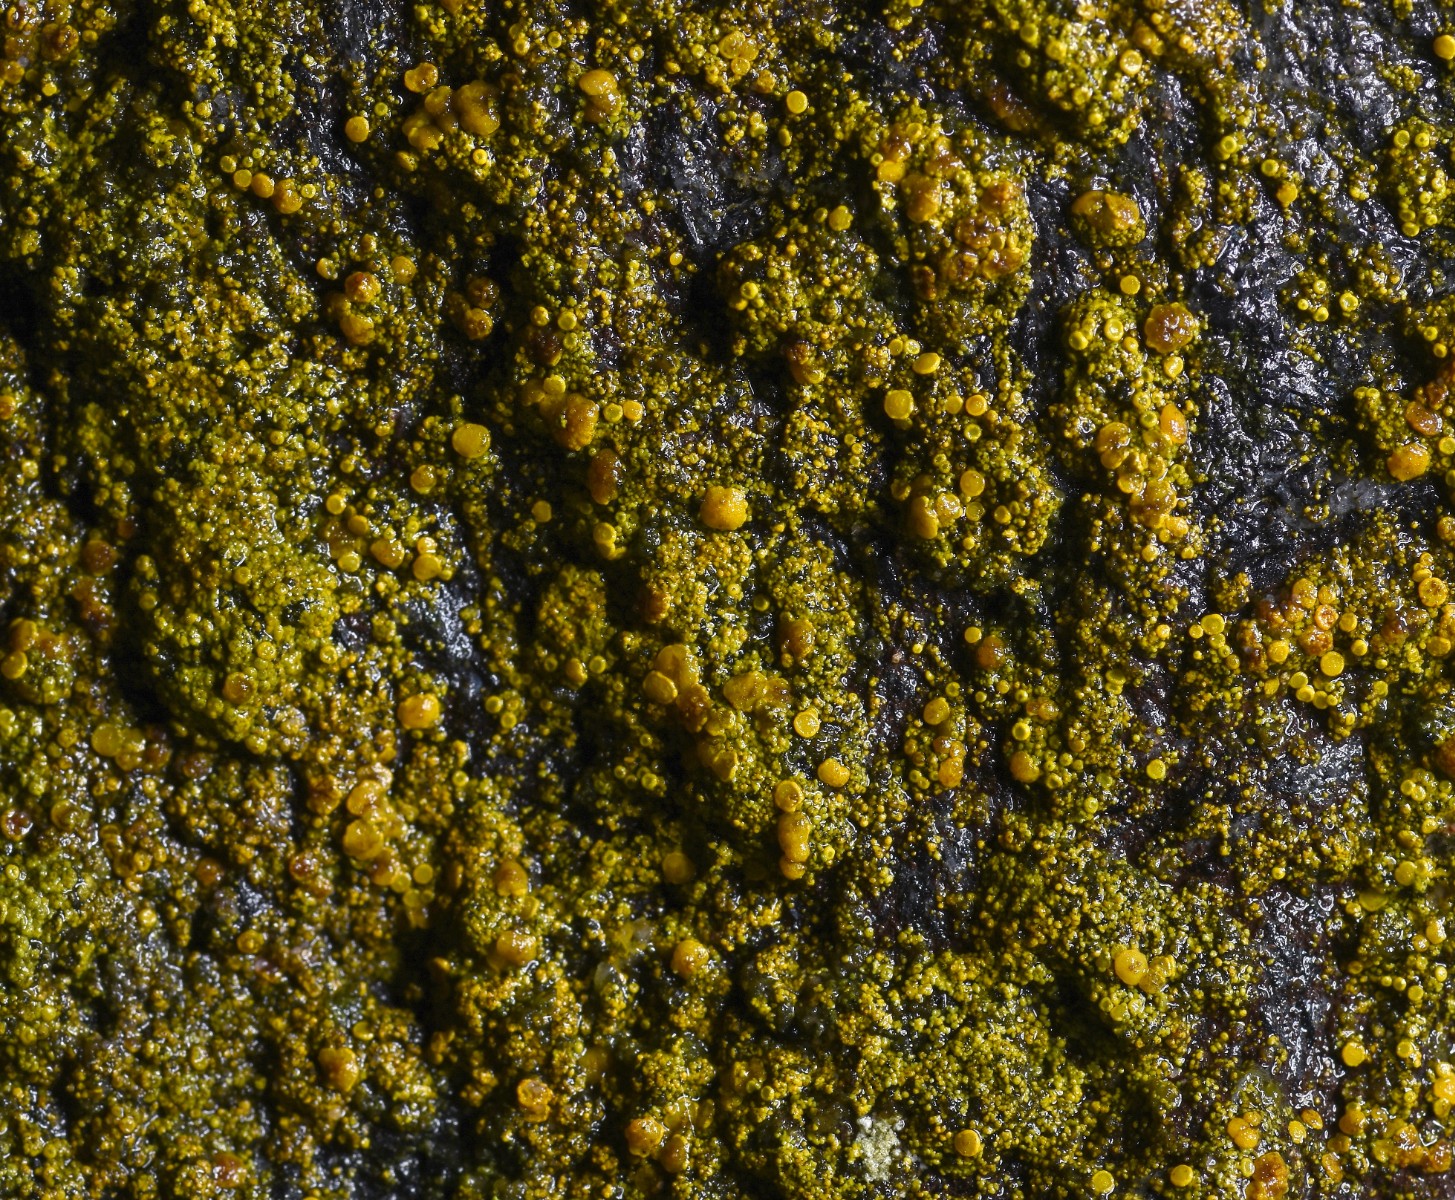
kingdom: Fungi
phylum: Ascomycota
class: Candelariomycetes
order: Candelariales
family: Candelariaceae
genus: Candelariella
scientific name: Candelariella vitellina
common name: almindelig æggeblommelav
